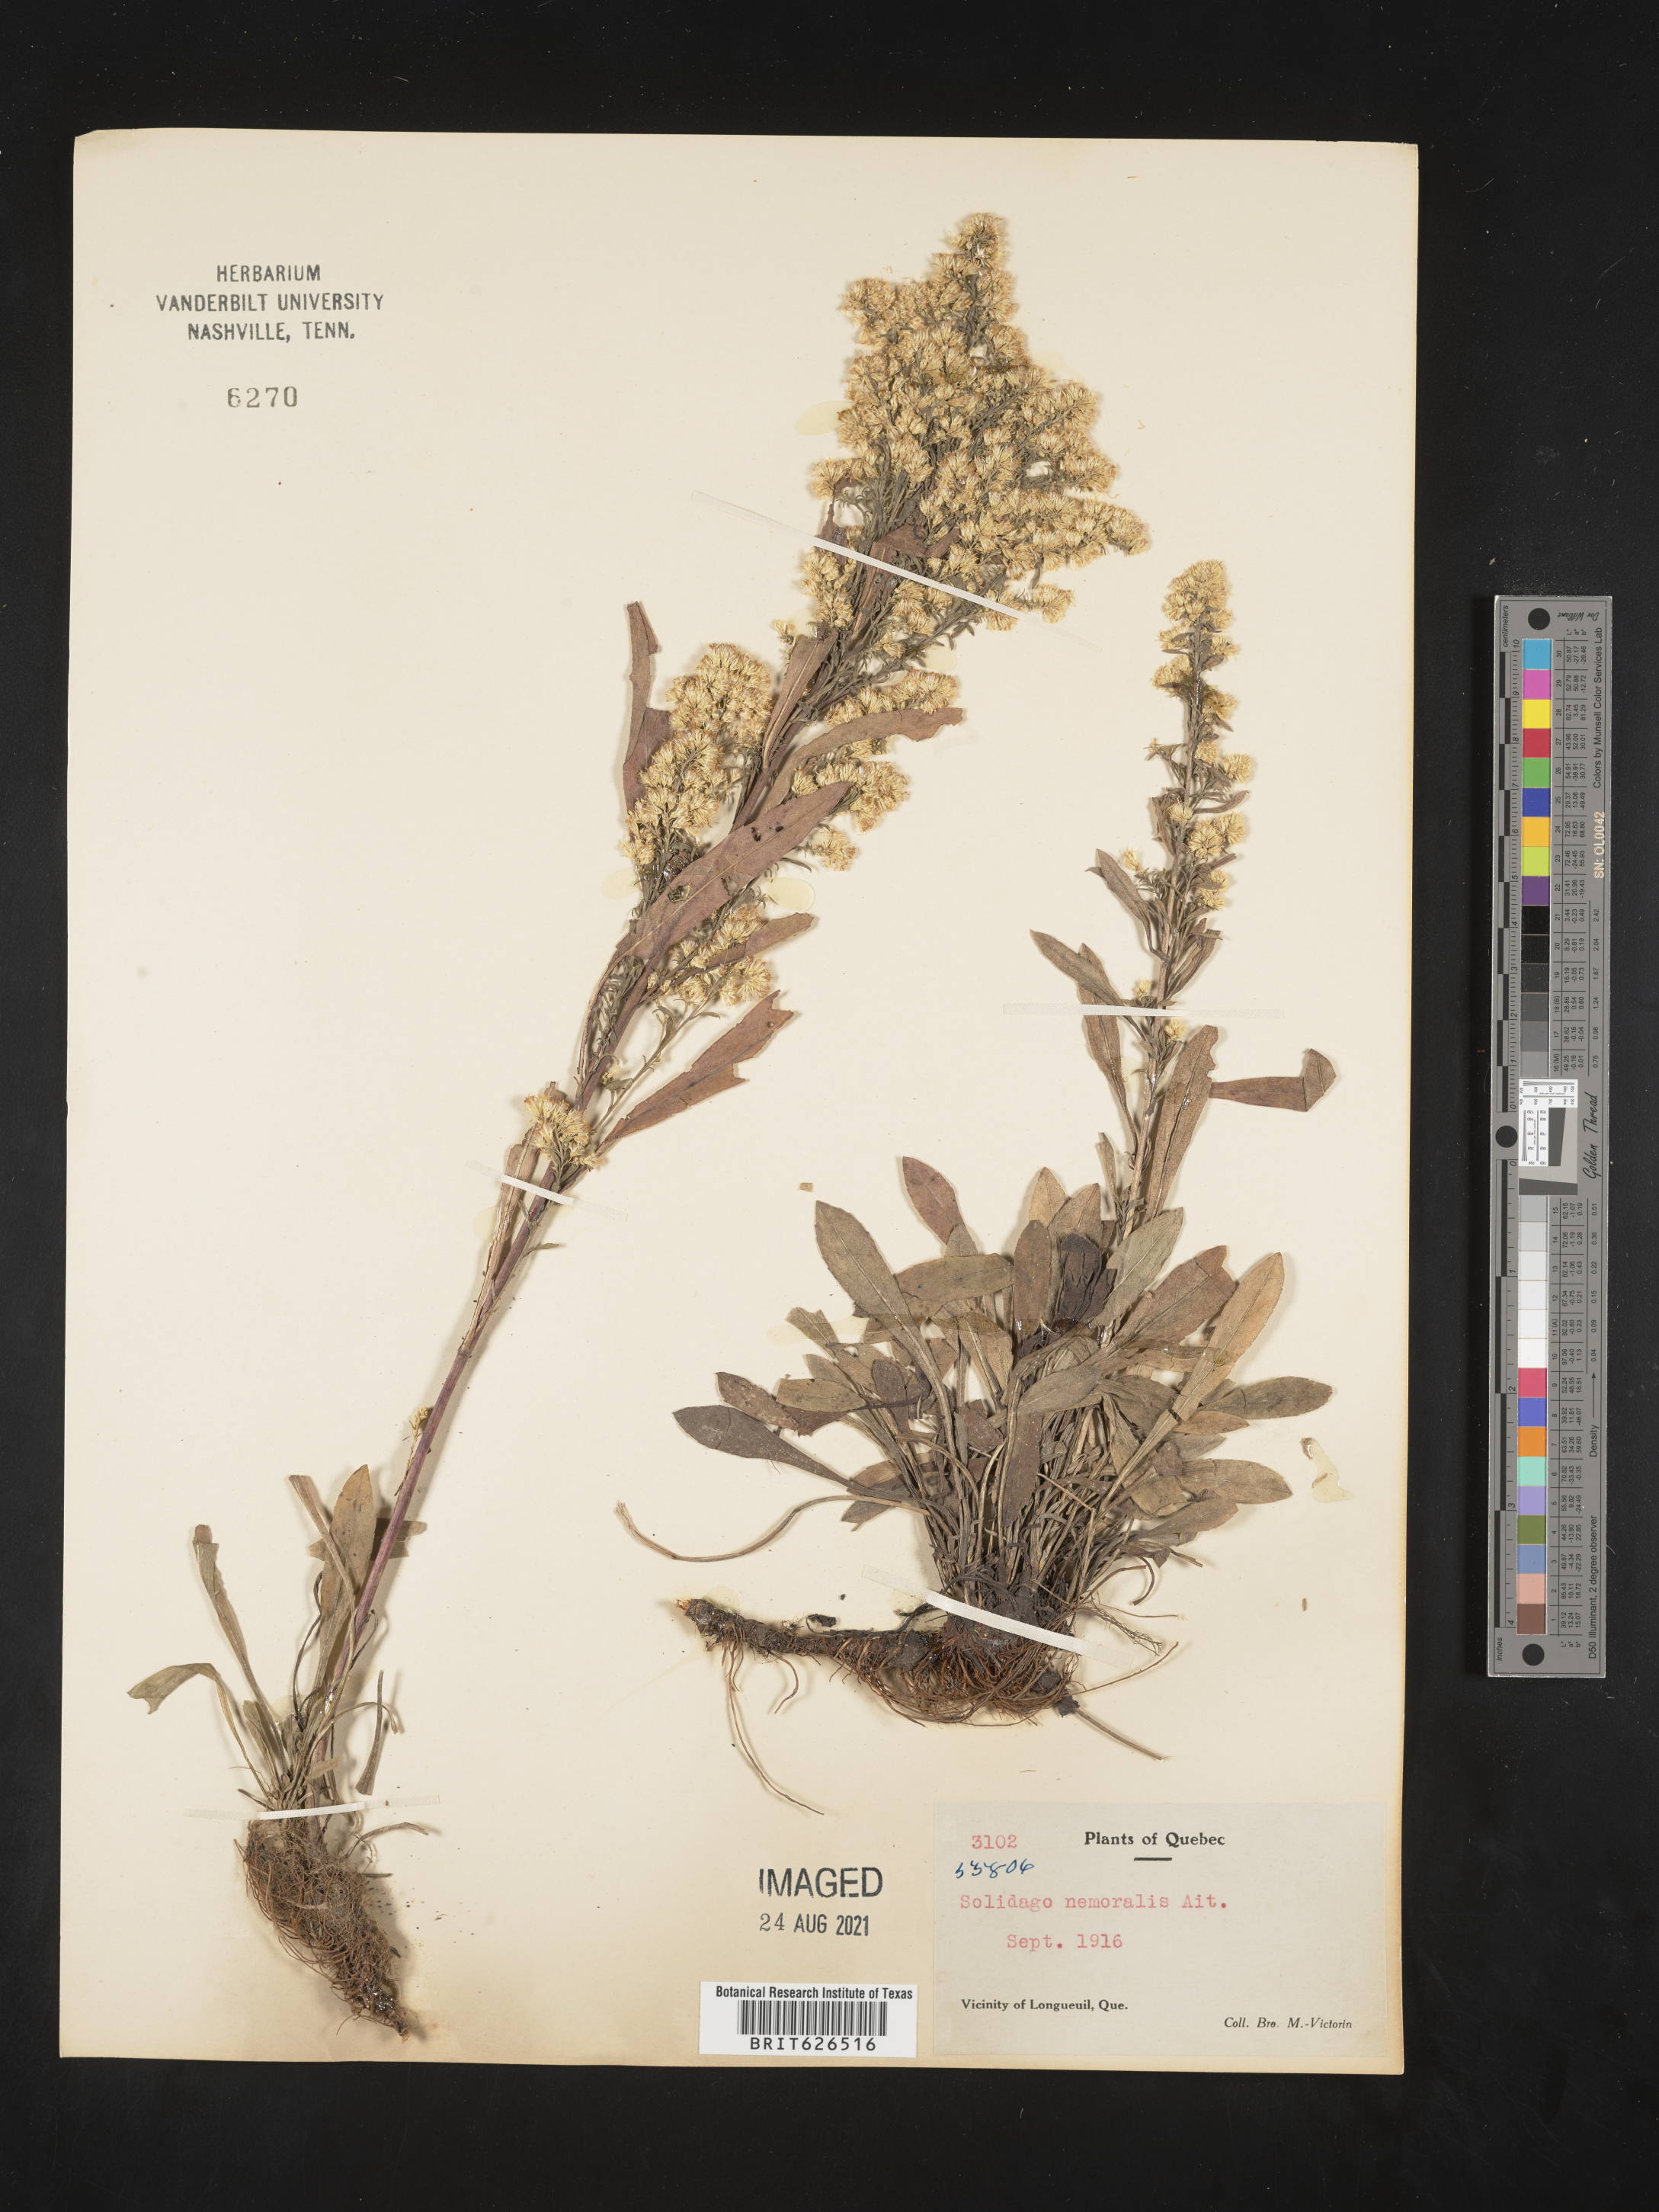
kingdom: Plantae
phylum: Tracheophyta
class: Magnoliopsida
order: Asterales
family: Asteraceae
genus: Solidago
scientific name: Solidago nemoralis
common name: Grey goldenrod
